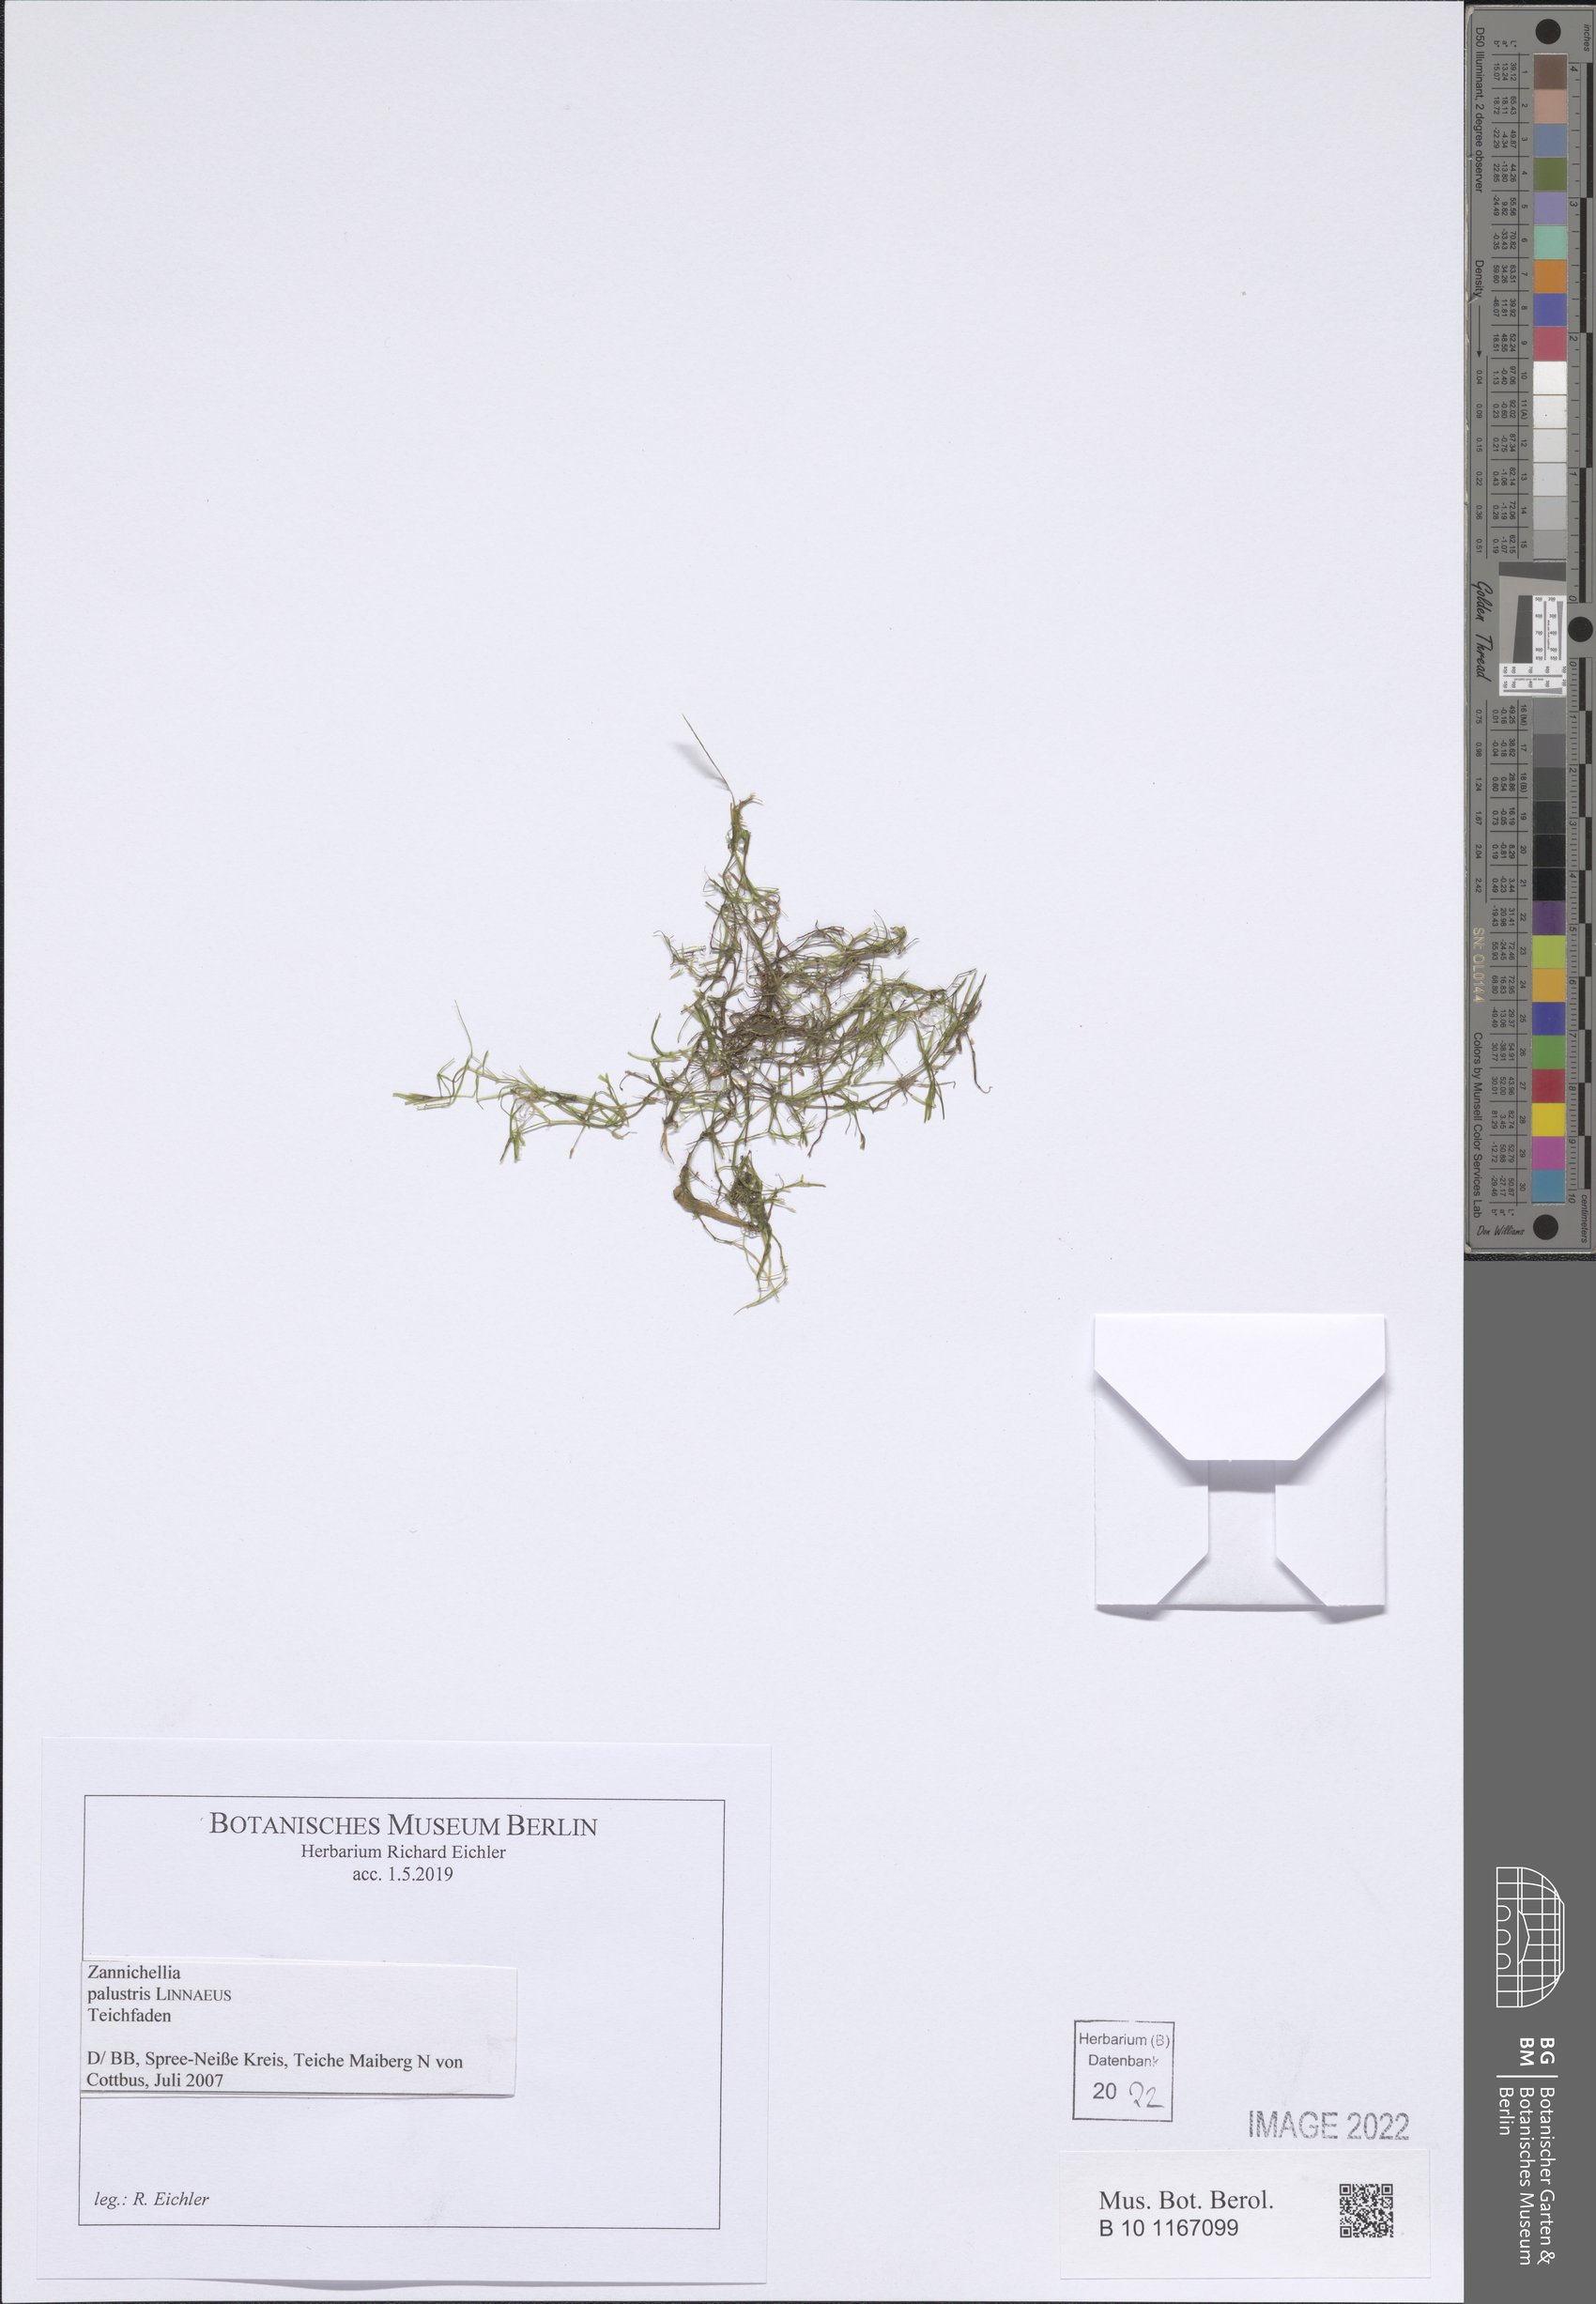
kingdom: Plantae
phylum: Tracheophyta
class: Liliopsida
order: Alismatales
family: Potamogetonaceae
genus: Zannichellia
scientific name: Zannichellia palustris
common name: Horned pondweed
